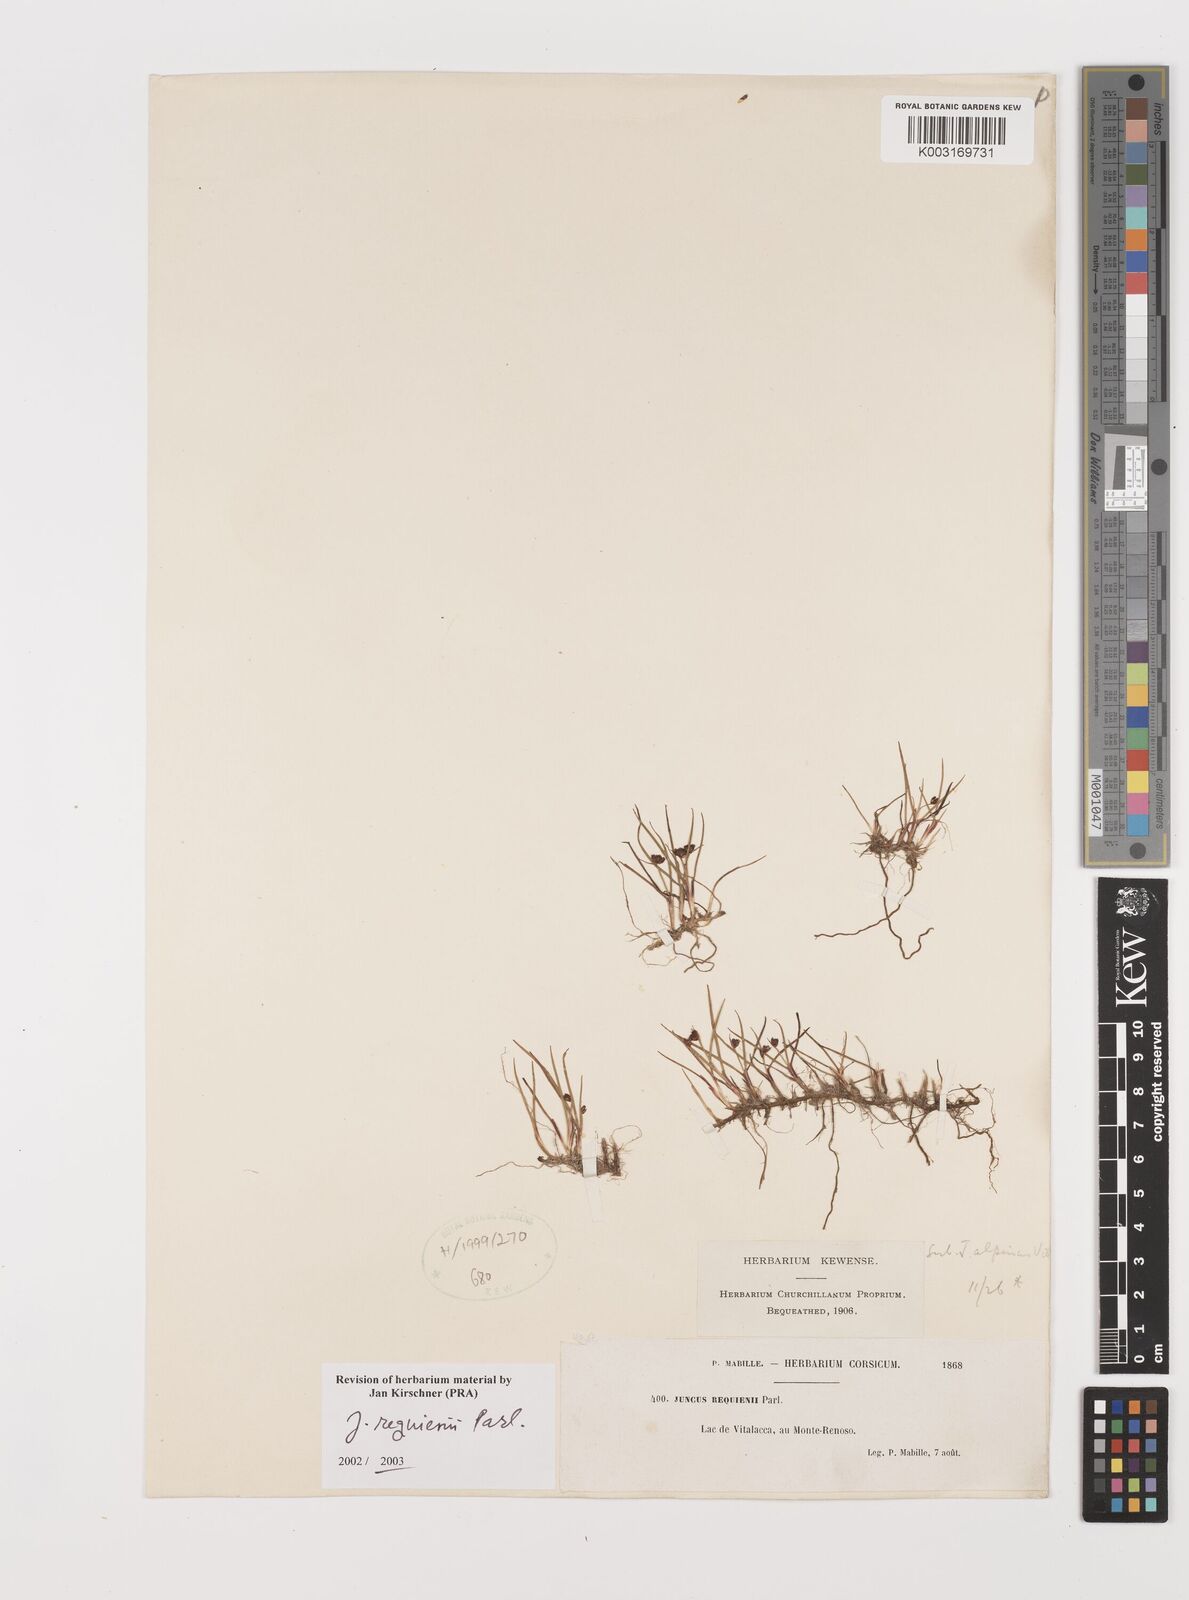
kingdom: Plantae
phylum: Tracheophyta
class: Liliopsida
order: Poales
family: Juncaceae
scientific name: Juncaceae
